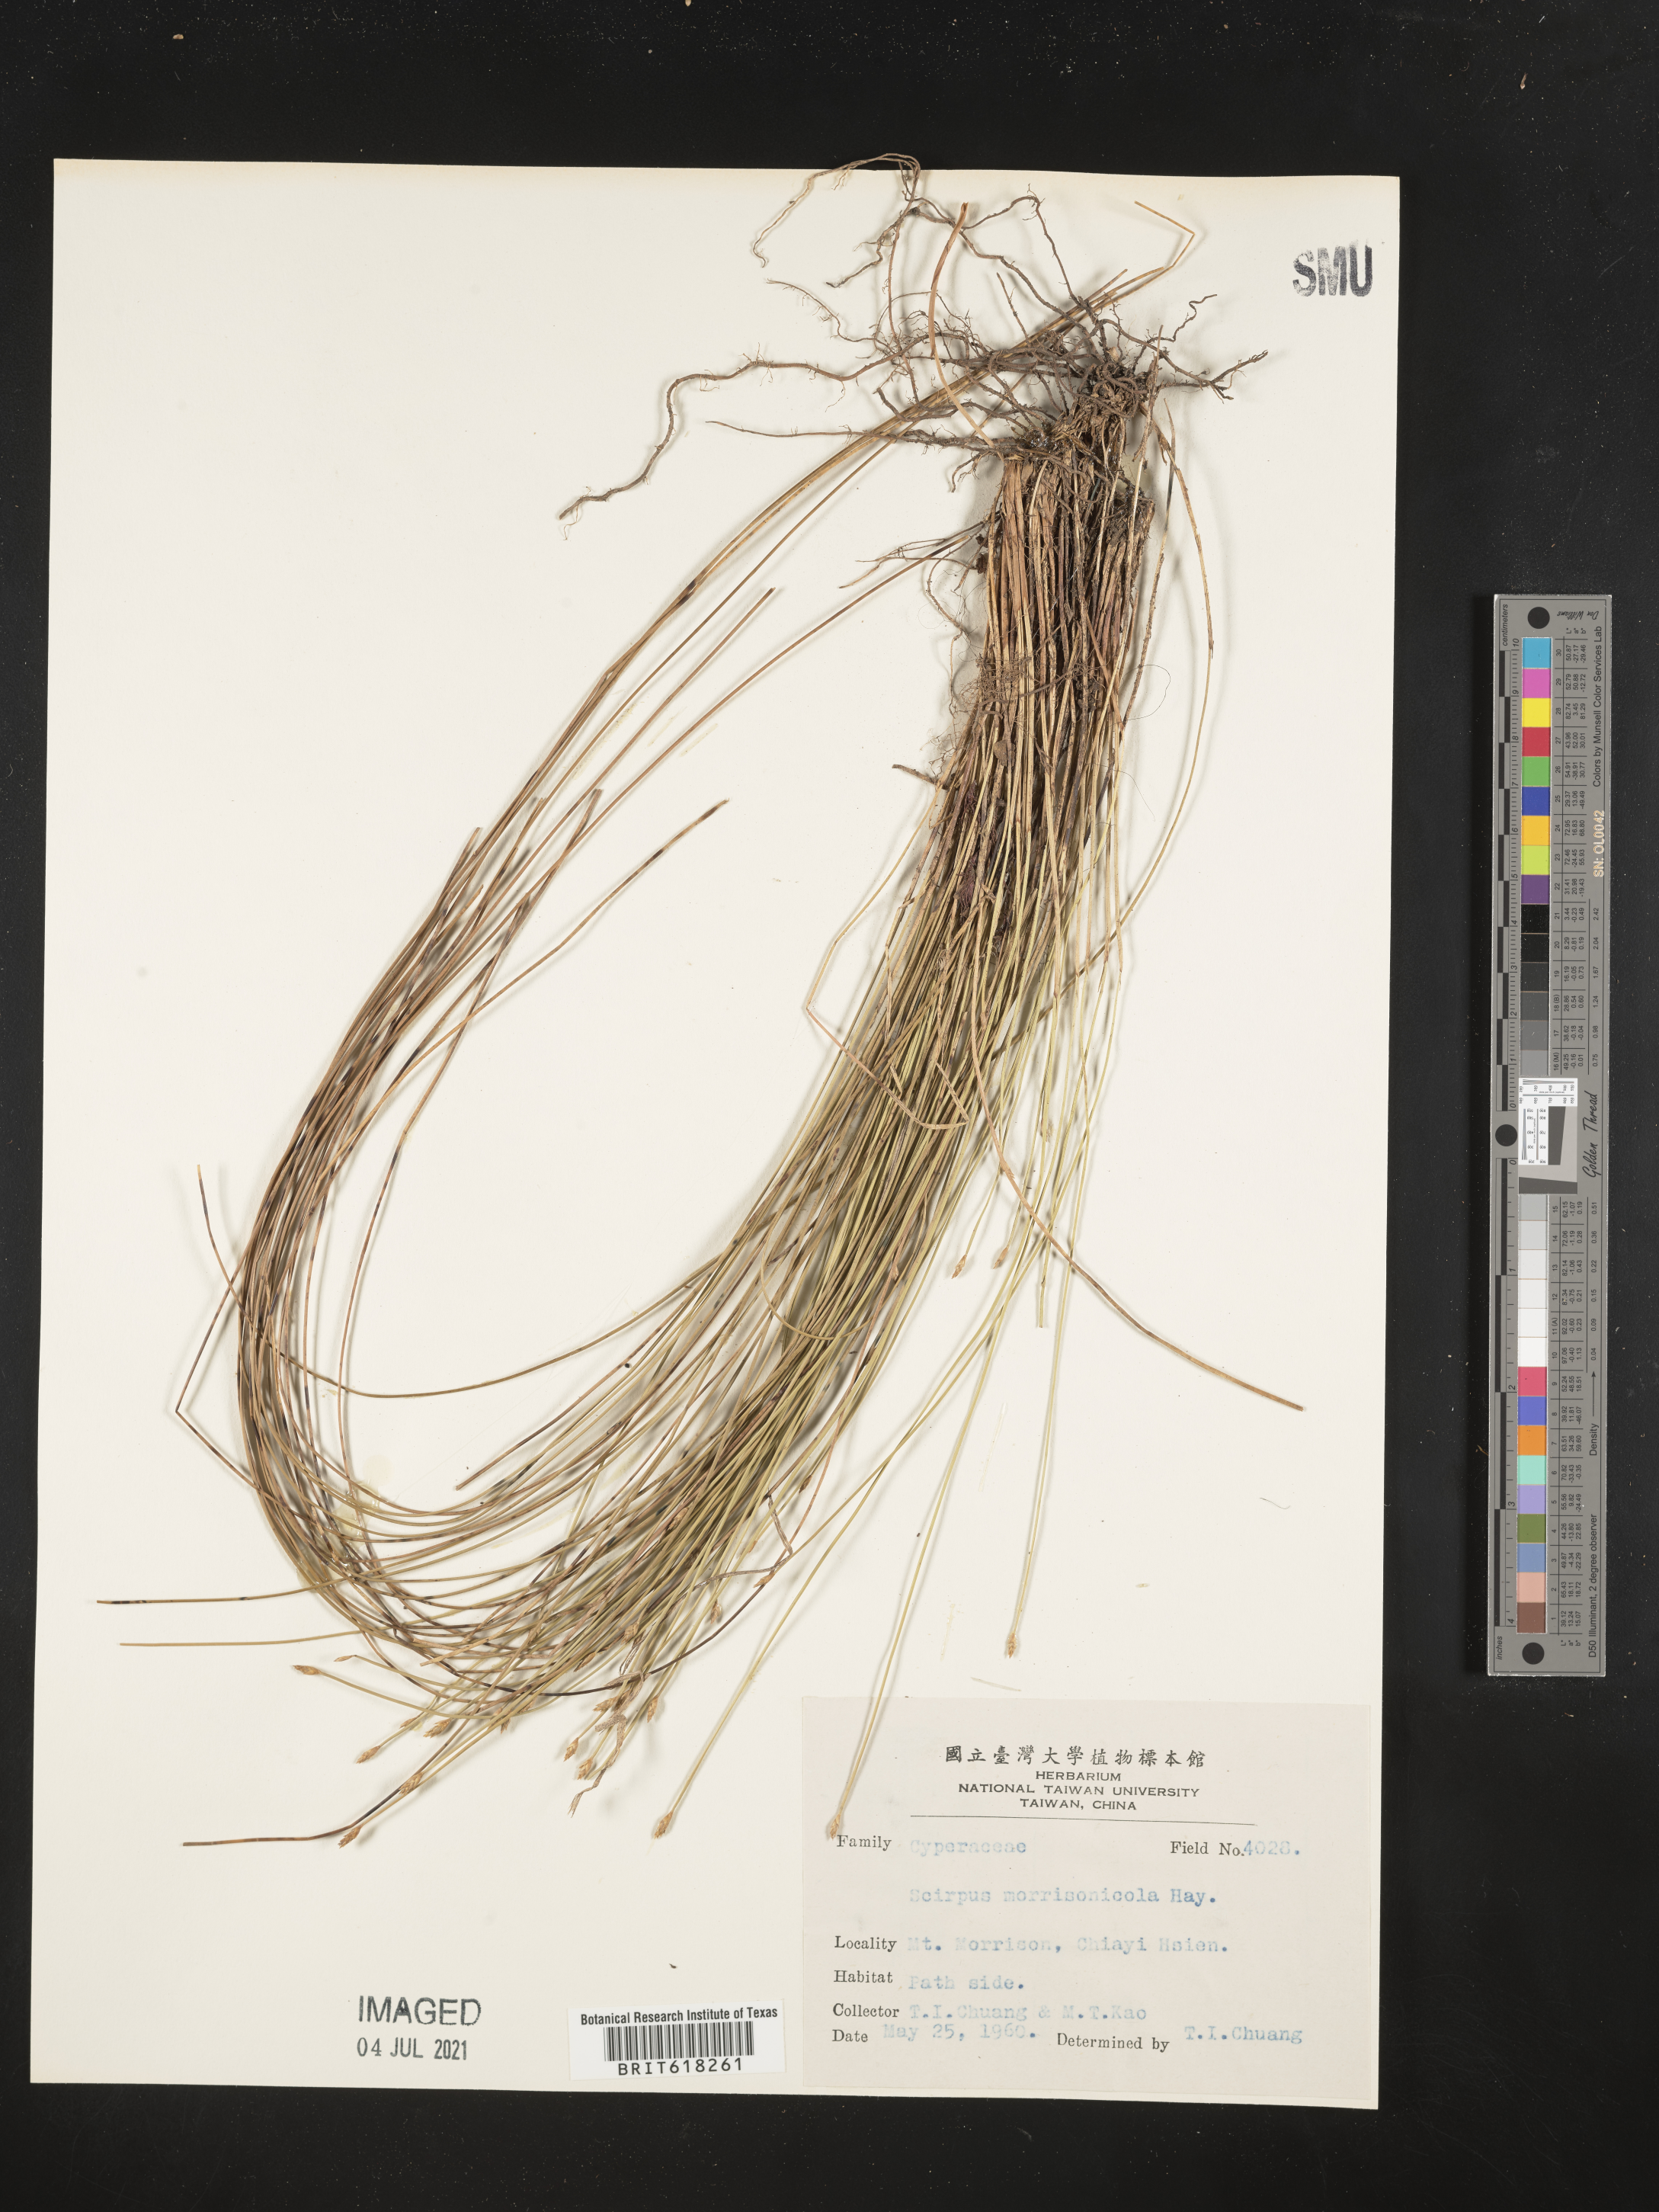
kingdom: Plantae
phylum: Tracheophyta
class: Liliopsida
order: Poales
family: Cyperaceae
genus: Scirpus
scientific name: Scirpus
